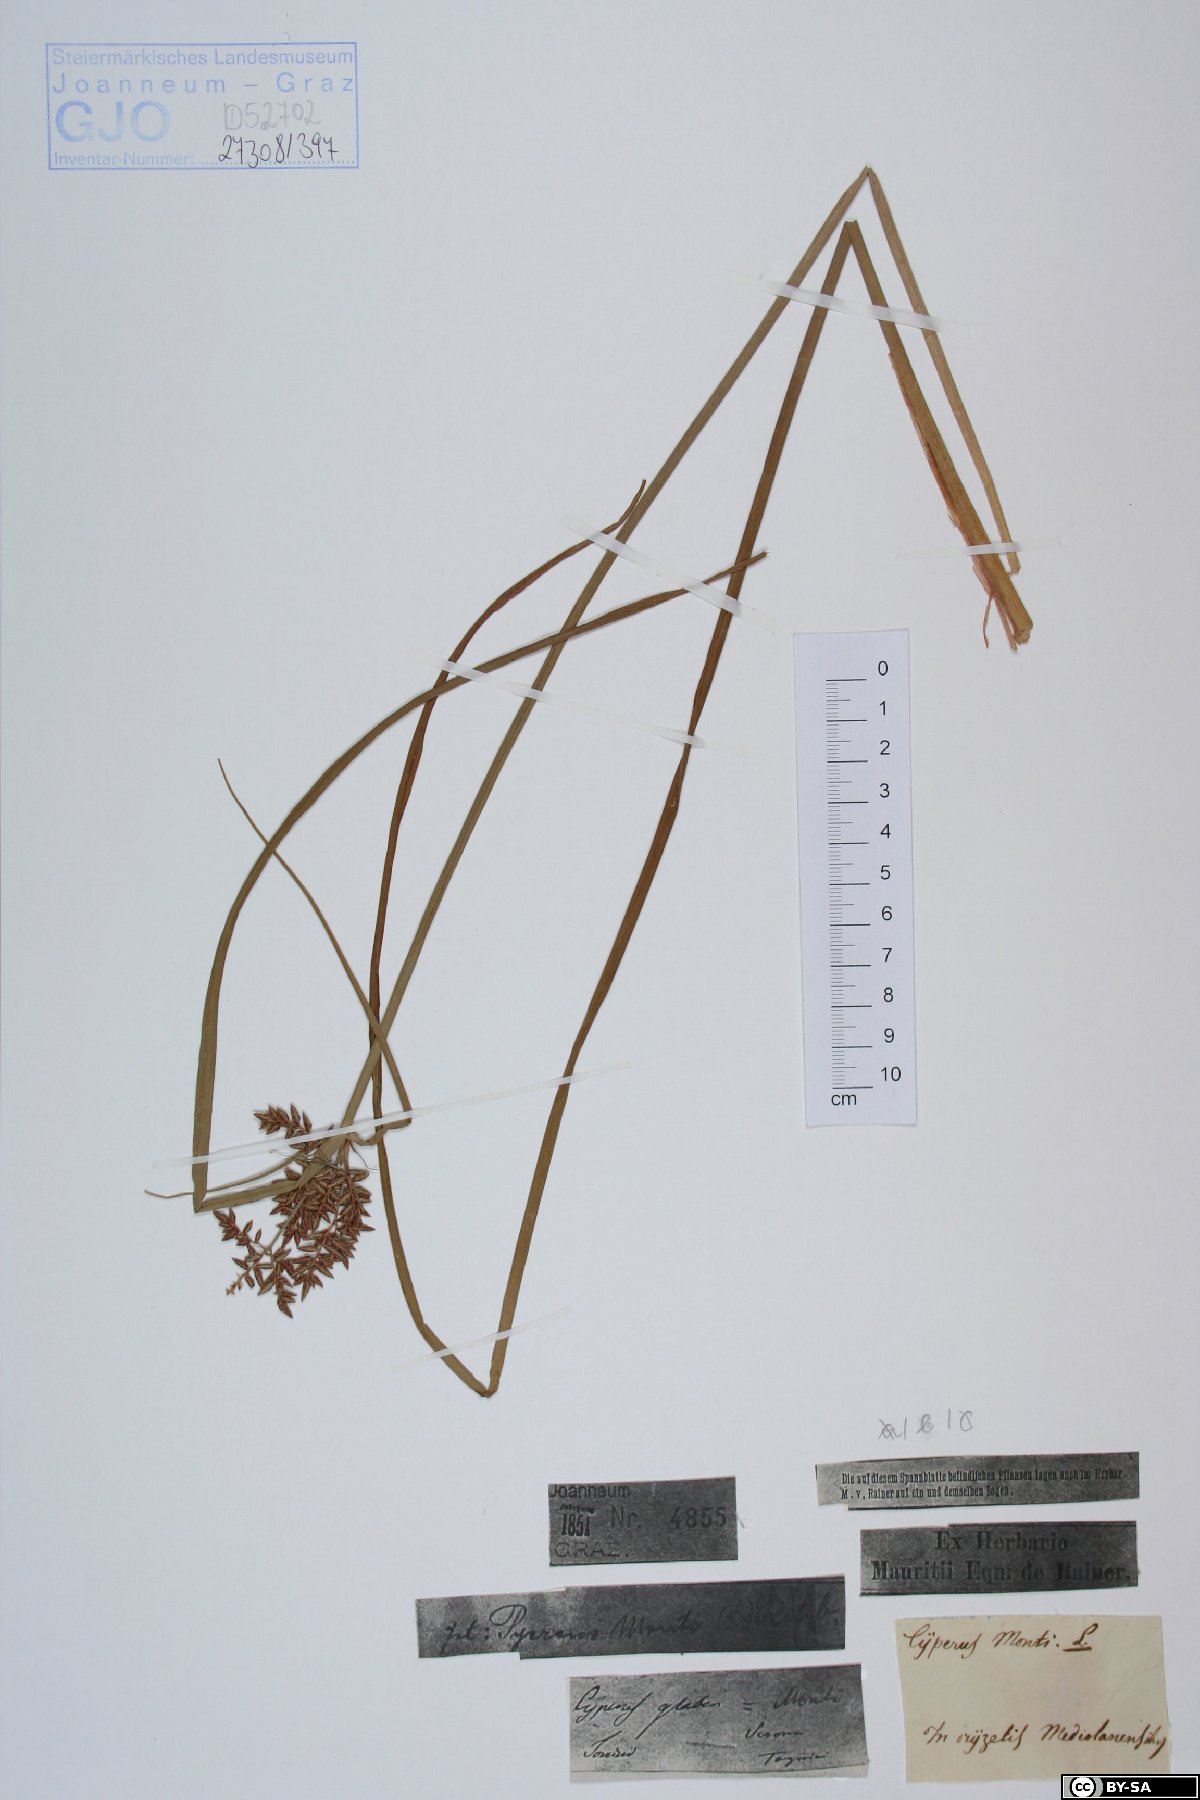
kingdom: Plantae
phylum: Tracheophyta
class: Liliopsida
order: Poales
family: Cyperaceae
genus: Cyperus
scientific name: Cyperus serotinus
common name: Tidalmarsh flatsedge
